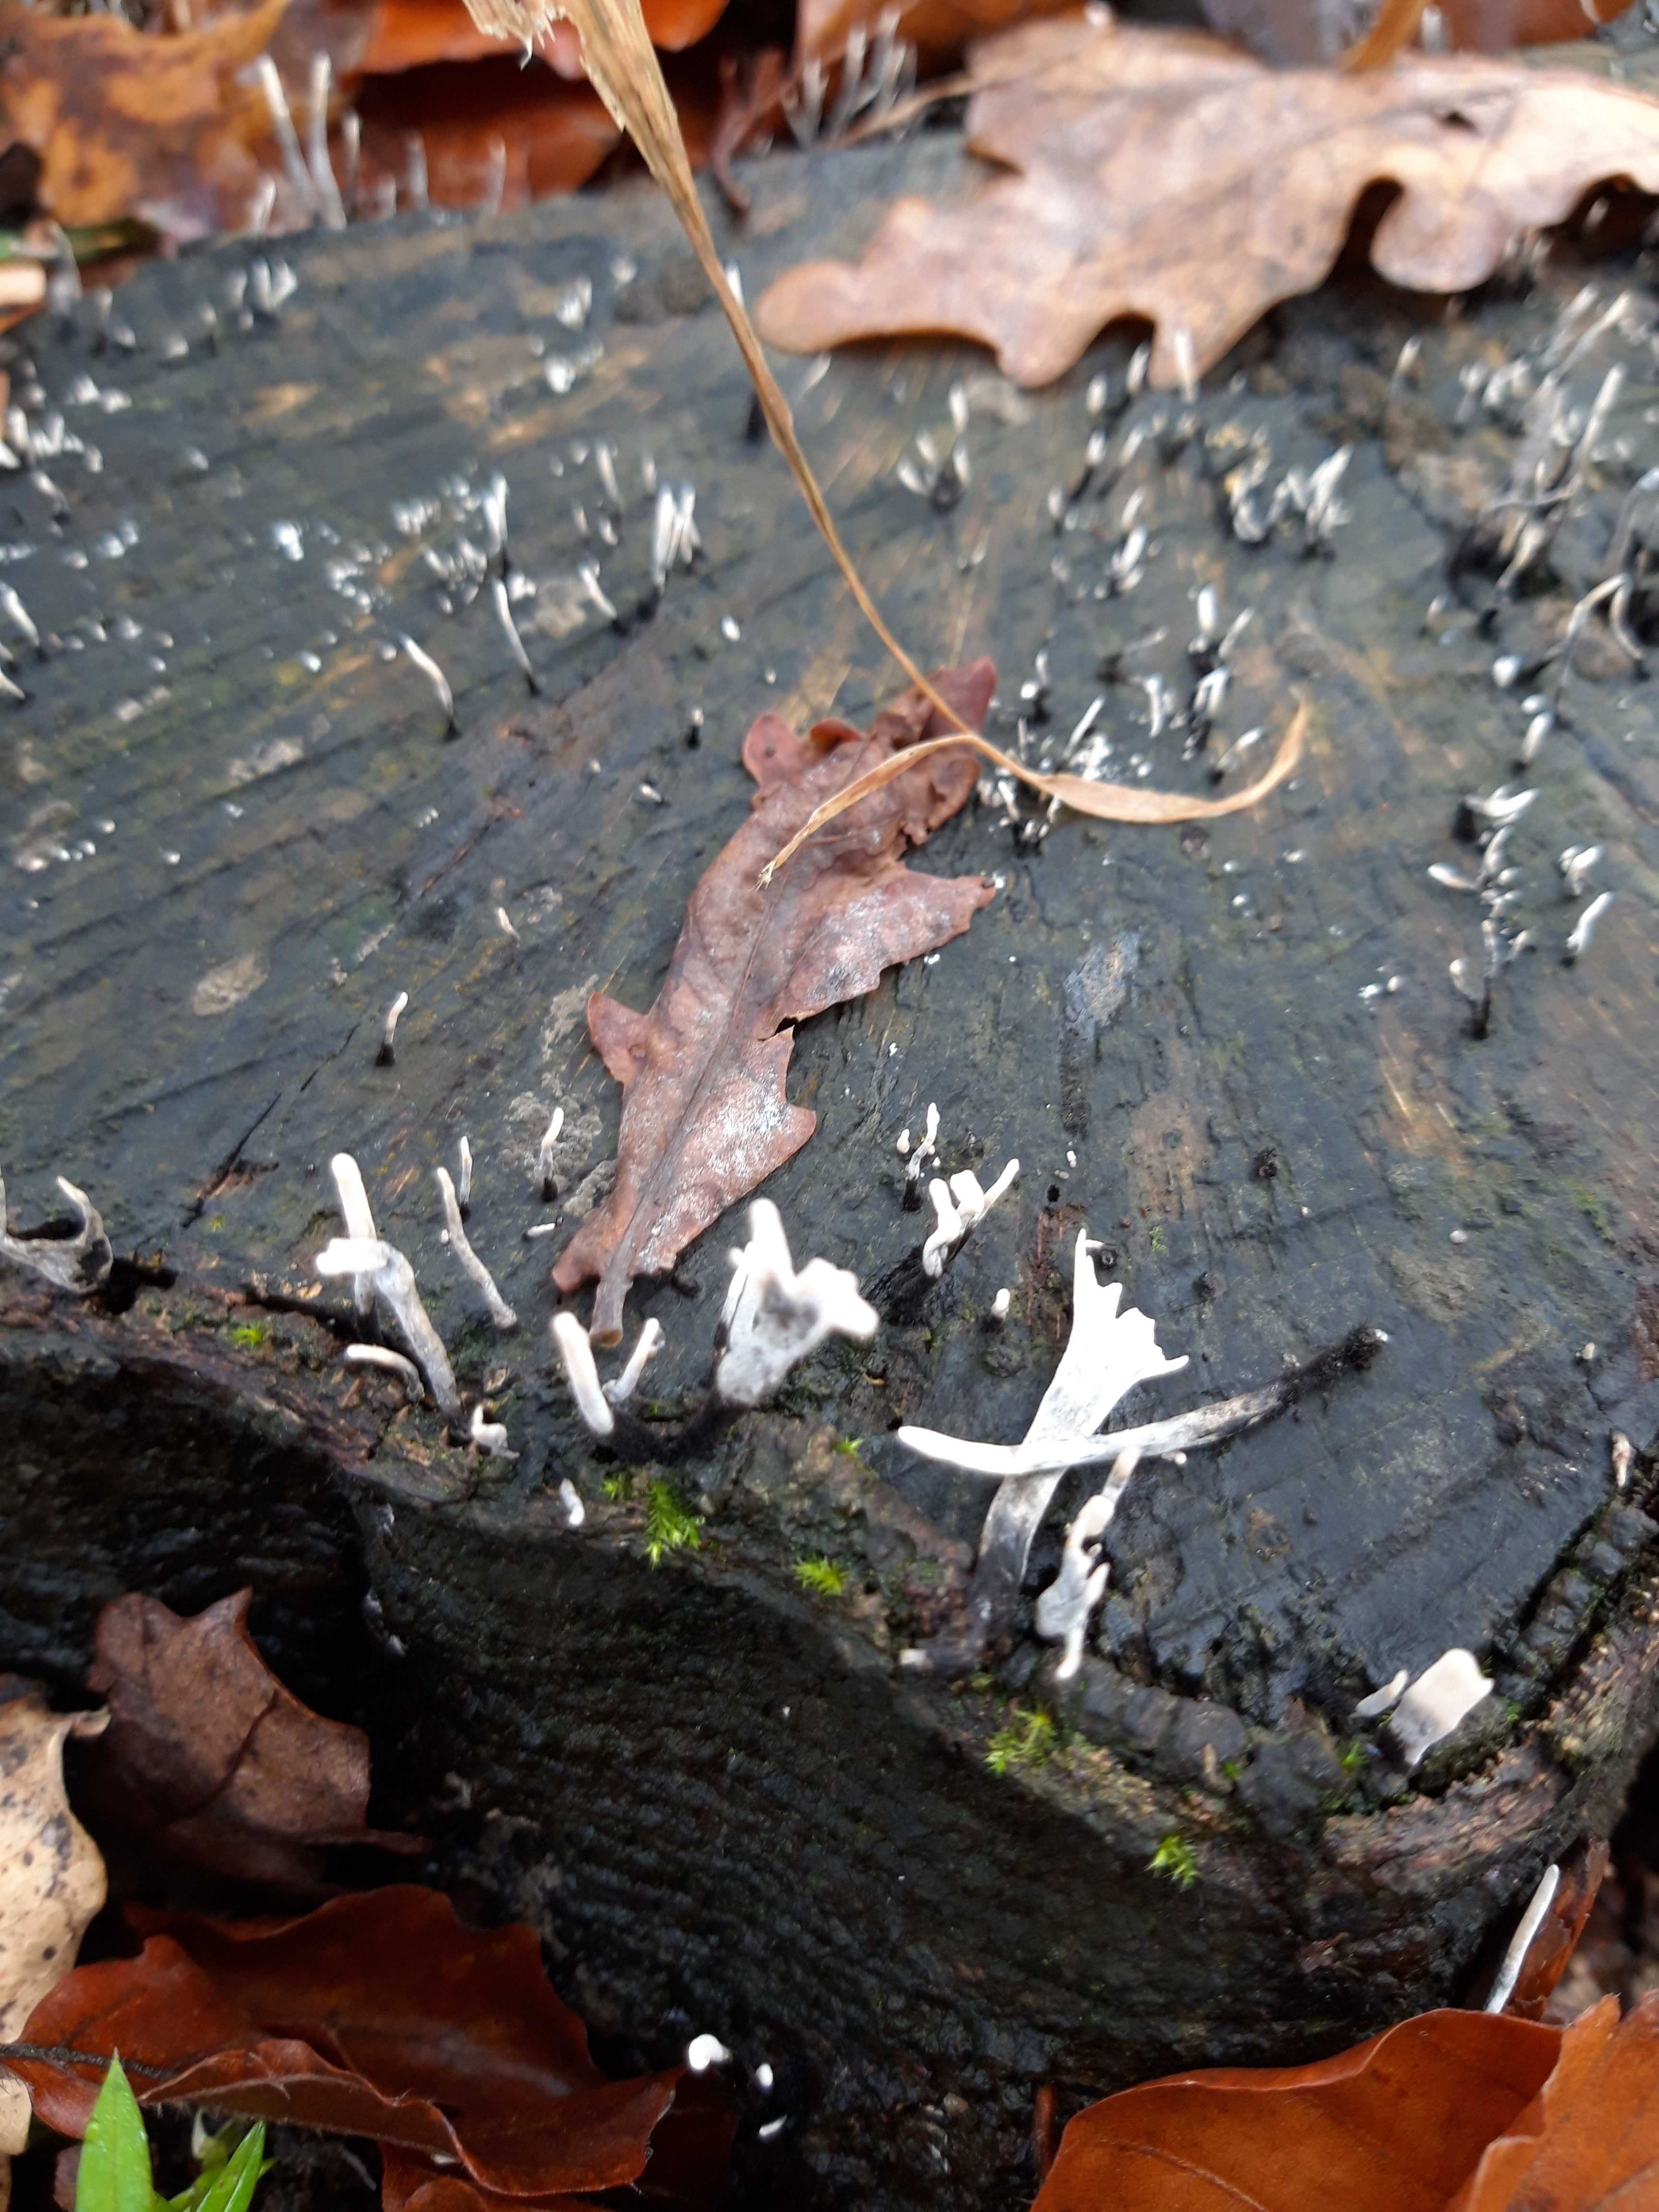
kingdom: Fungi
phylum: Ascomycota
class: Sordariomycetes
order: Xylariales
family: Xylariaceae
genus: Xylaria
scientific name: Xylaria hypoxylon
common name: grenet stødsvamp
